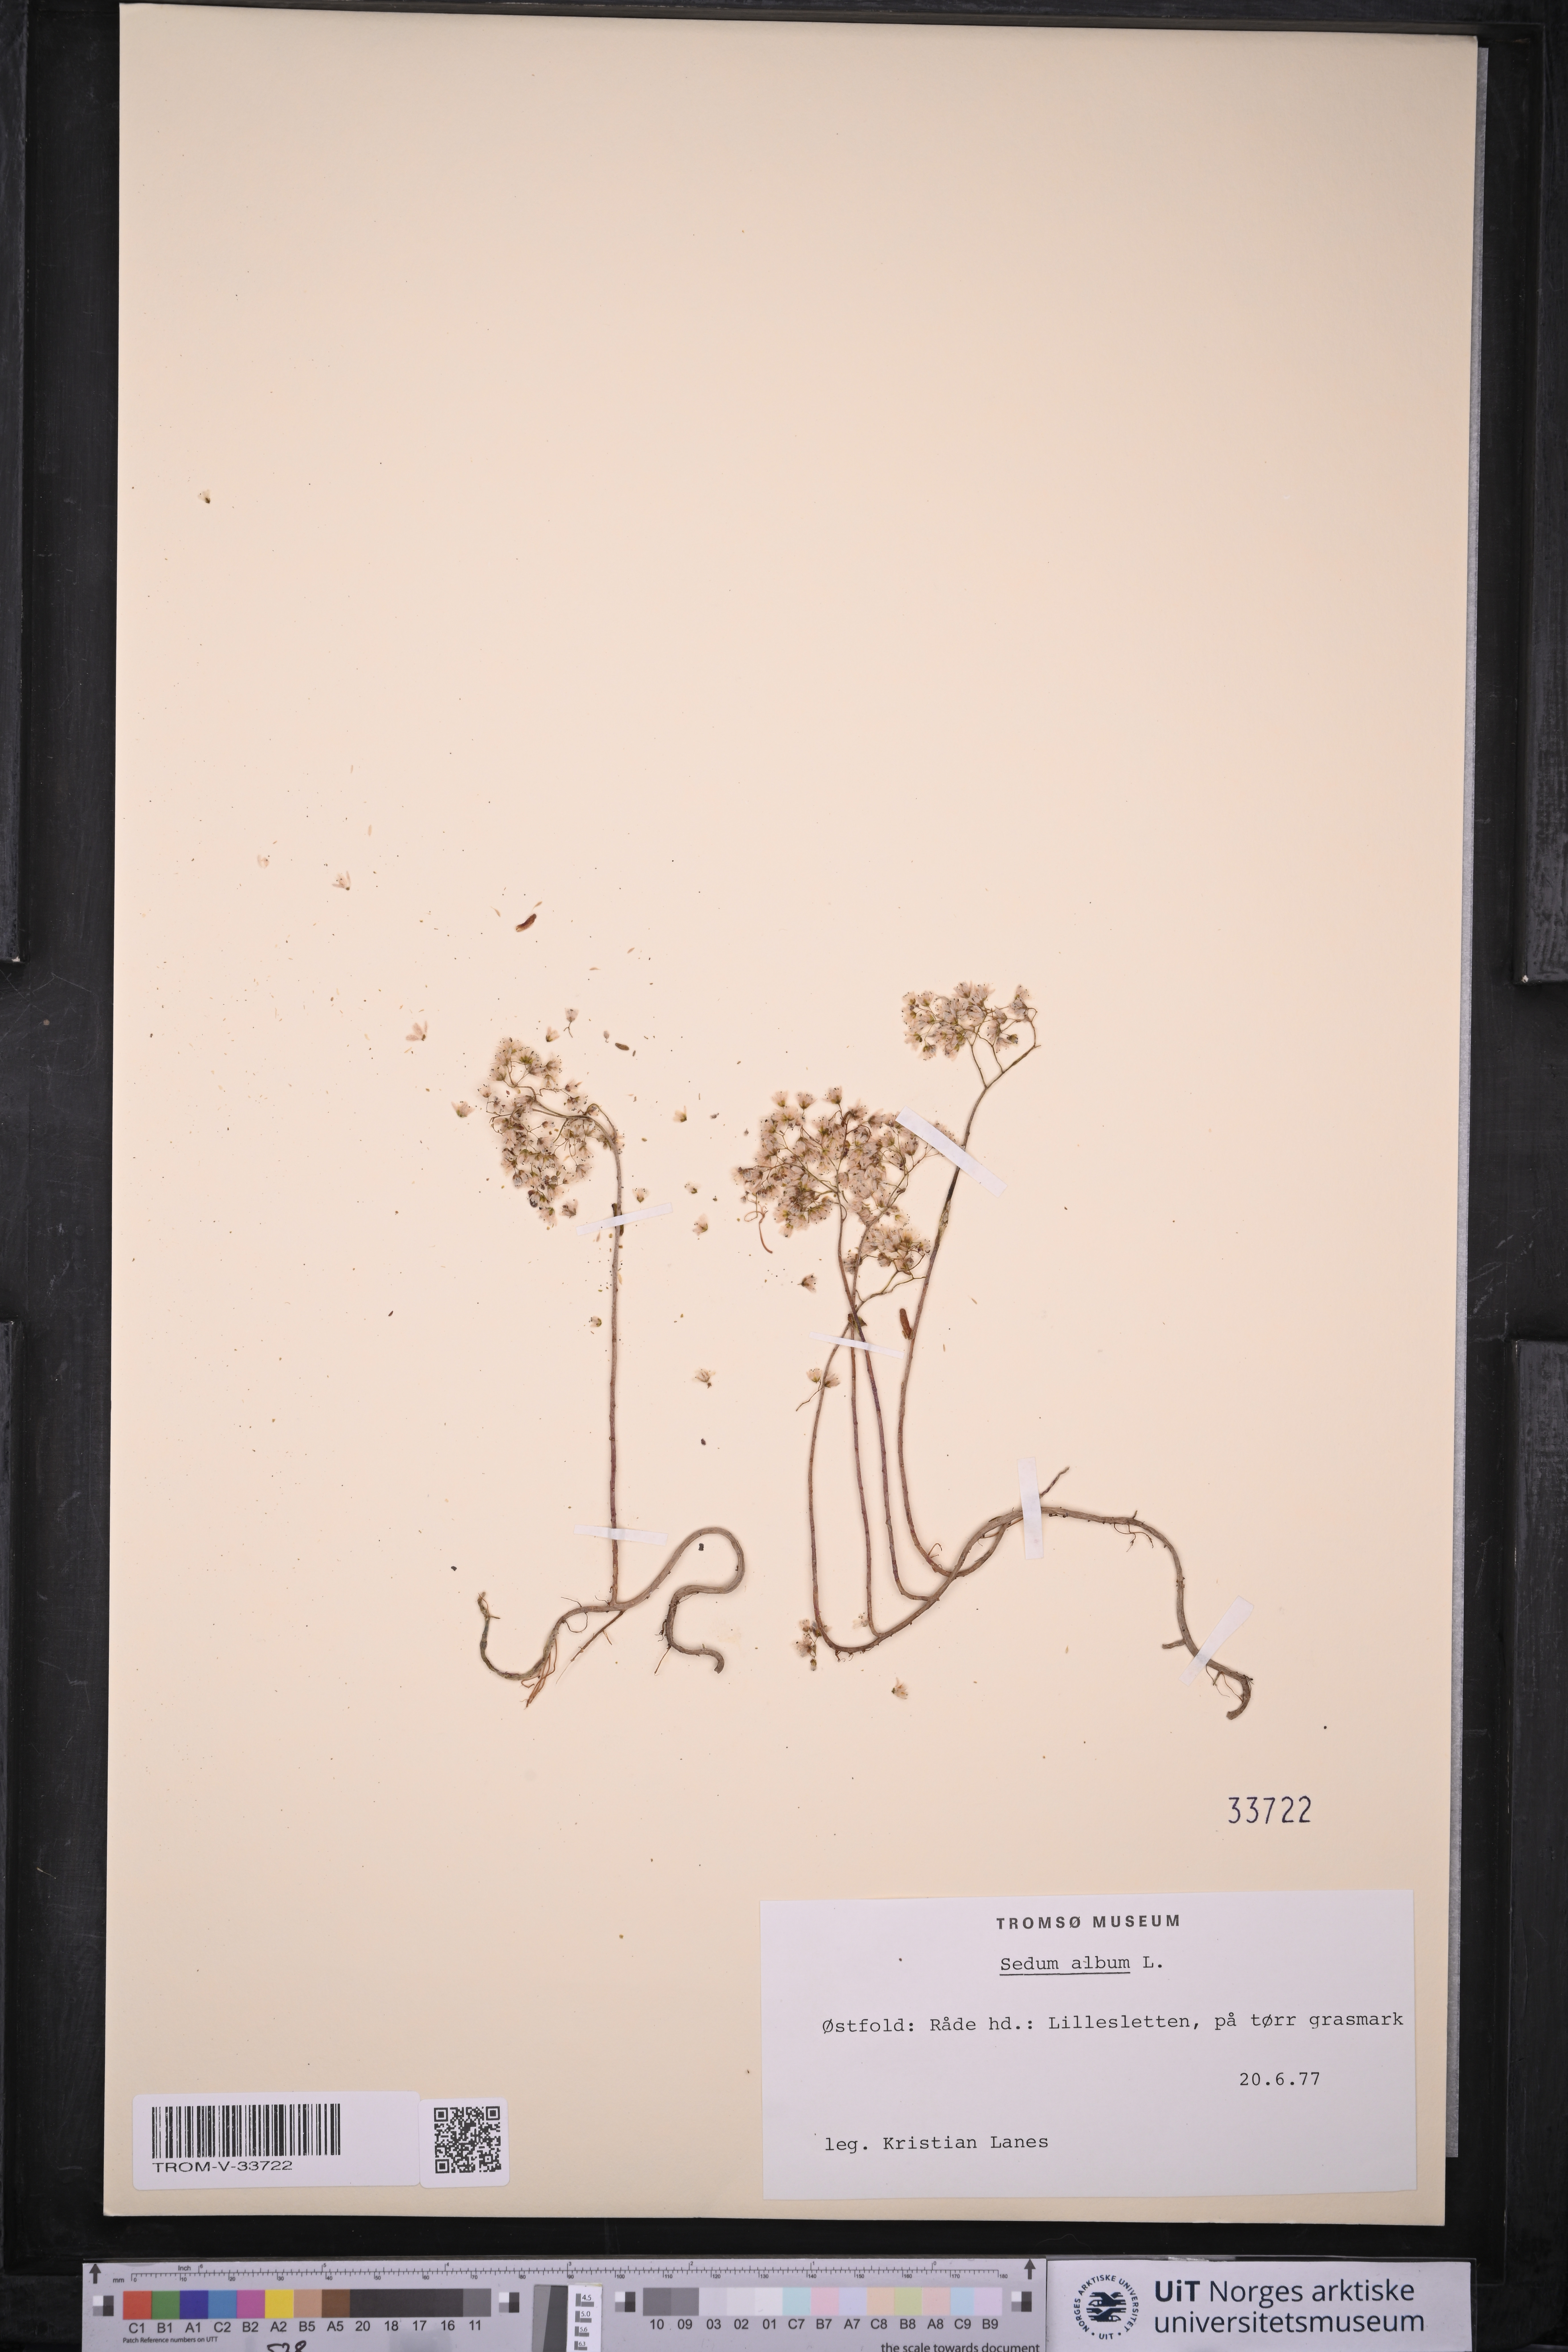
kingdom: Plantae
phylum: Tracheophyta
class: Magnoliopsida
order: Saxifragales
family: Crassulaceae
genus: Sedum
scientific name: Sedum album
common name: White stonecrop
